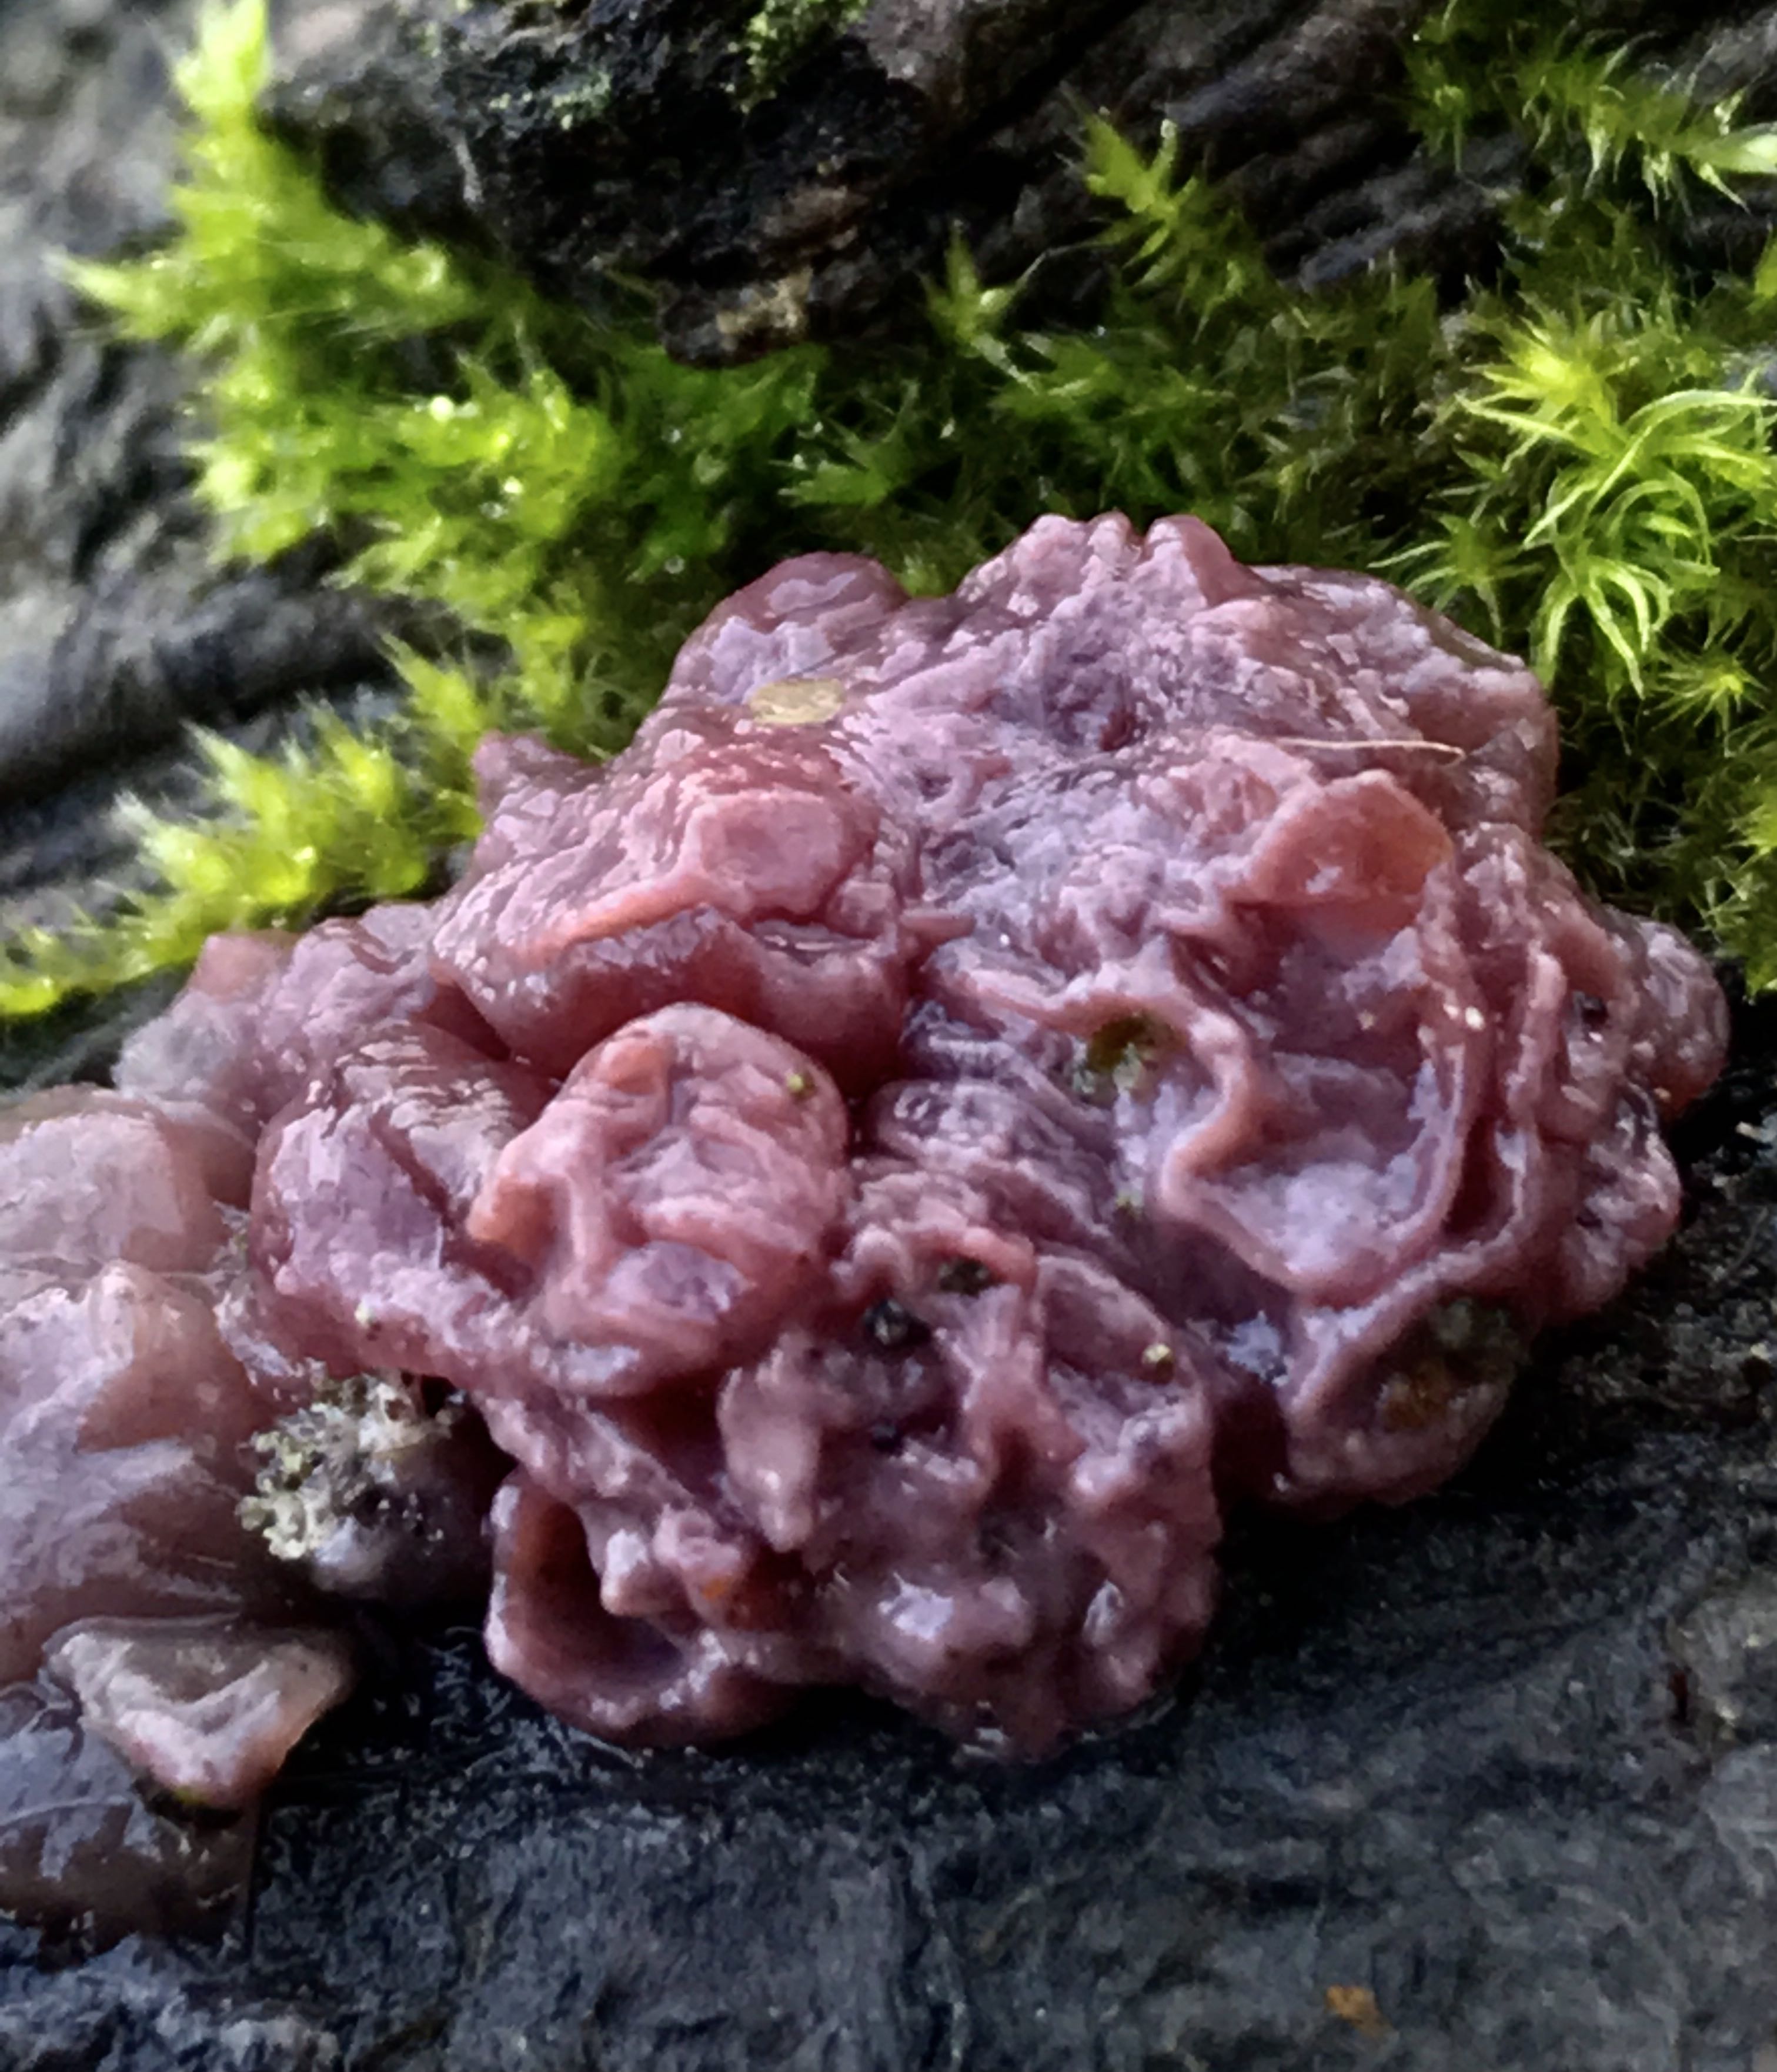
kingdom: Fungi
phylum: Ascomycota
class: Leotiomycetes
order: Helotiales
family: Gelatinodiscaceae
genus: Ascocoryne
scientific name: Ascocoryne sarcoides
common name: rødlilla sejskive
